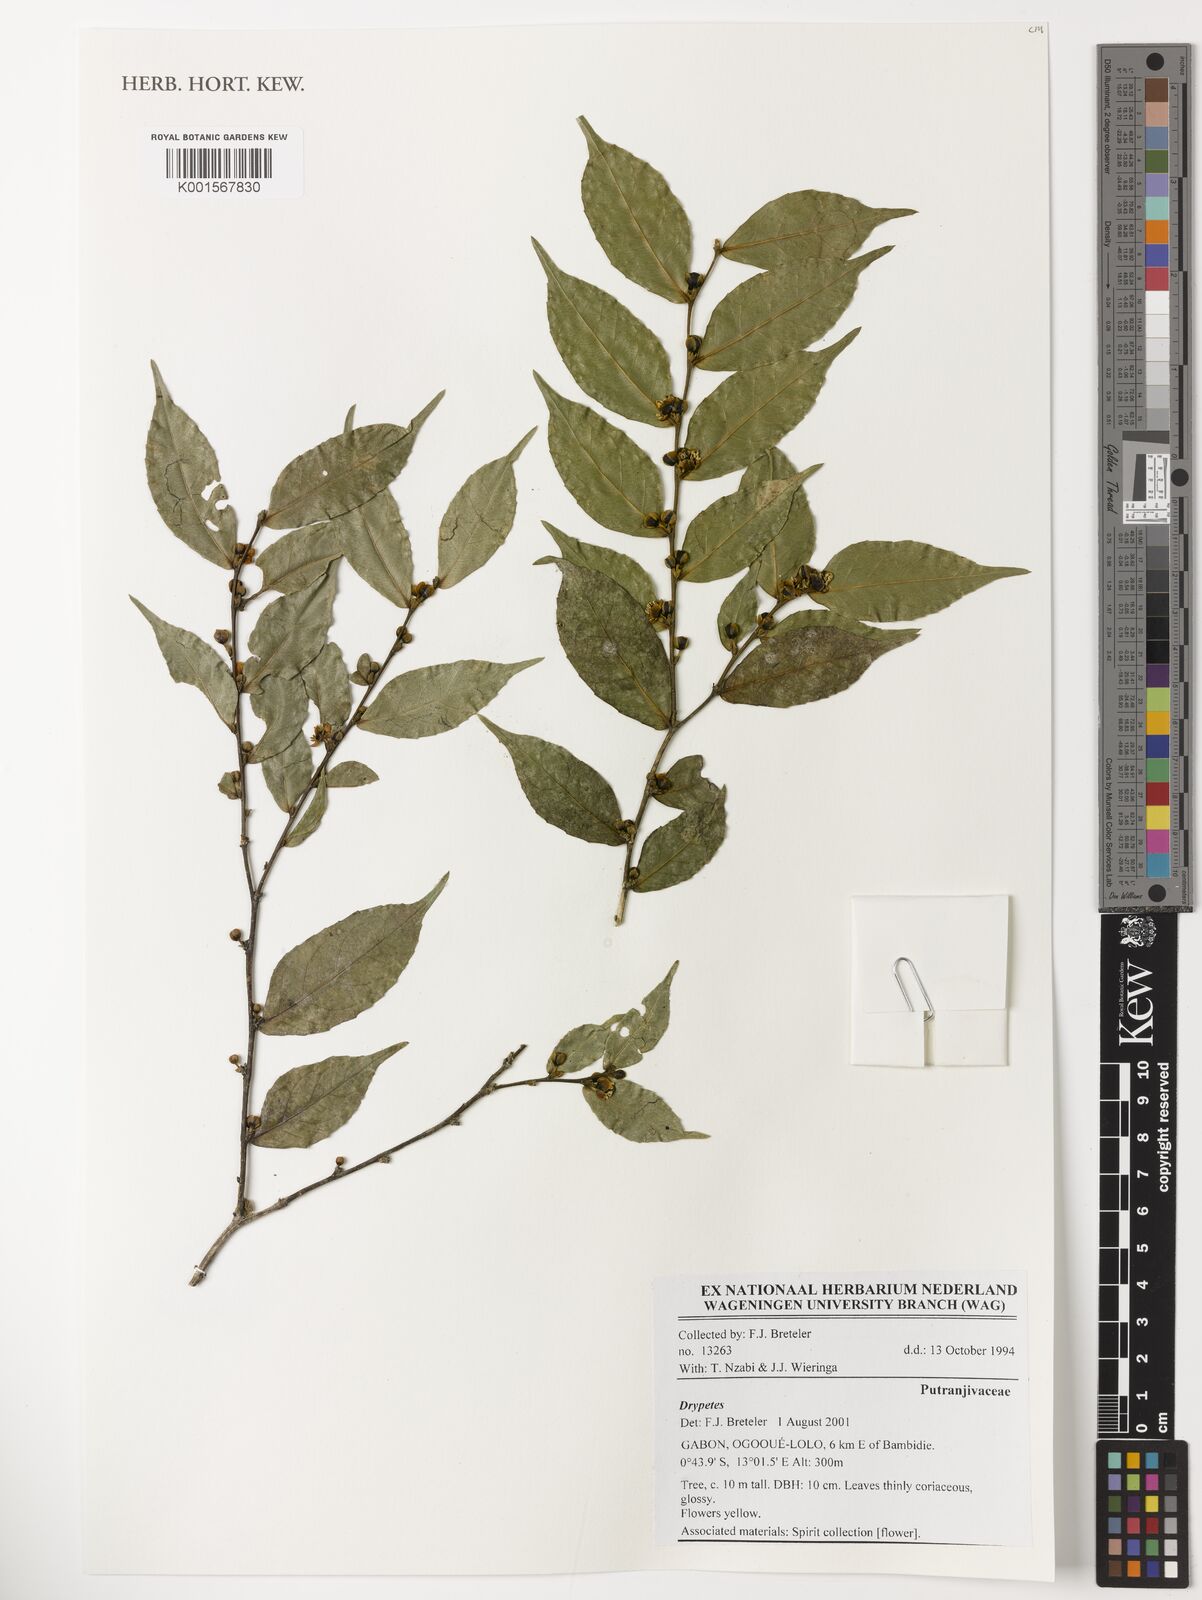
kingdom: Plantae
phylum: Tracheophyta
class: Magnoliopsida
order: Malpighiales
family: Putranjivaceae
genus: Drypetes
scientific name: Drypetes
